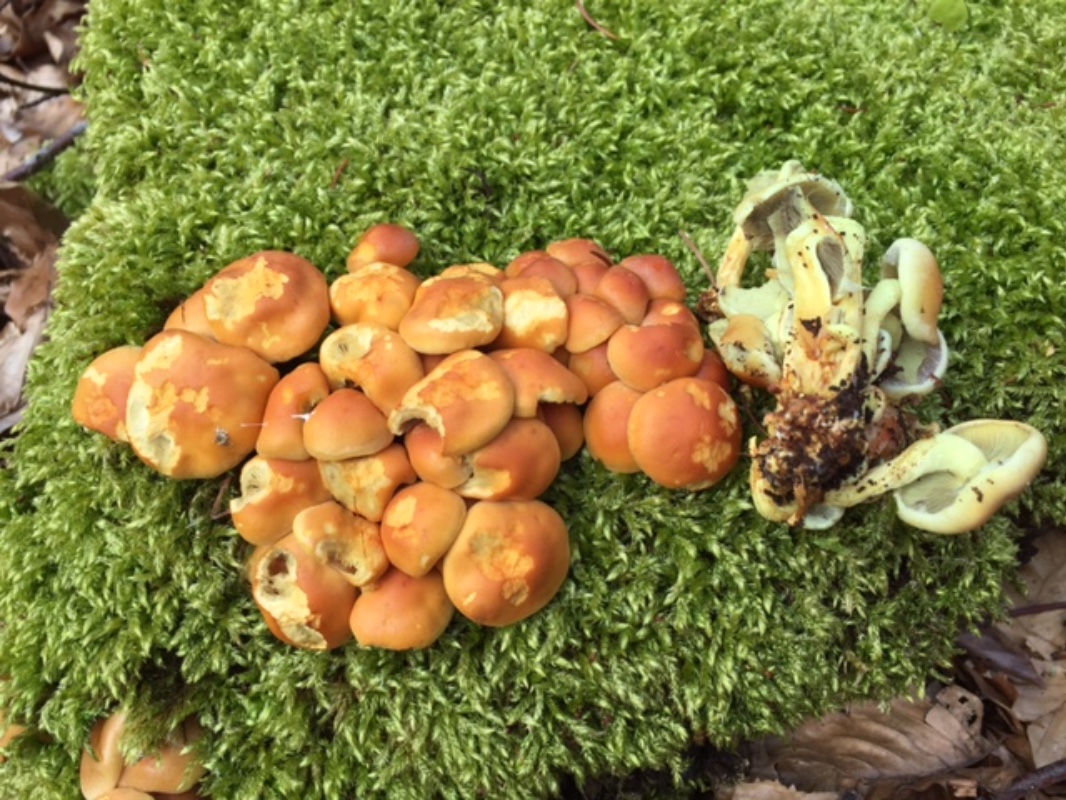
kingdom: Fungi
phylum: Basidiomycota
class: Agaricomycetes
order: Agaricales
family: Strophariaceae
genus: Hypholoma
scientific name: Hypholoma fasciculare
